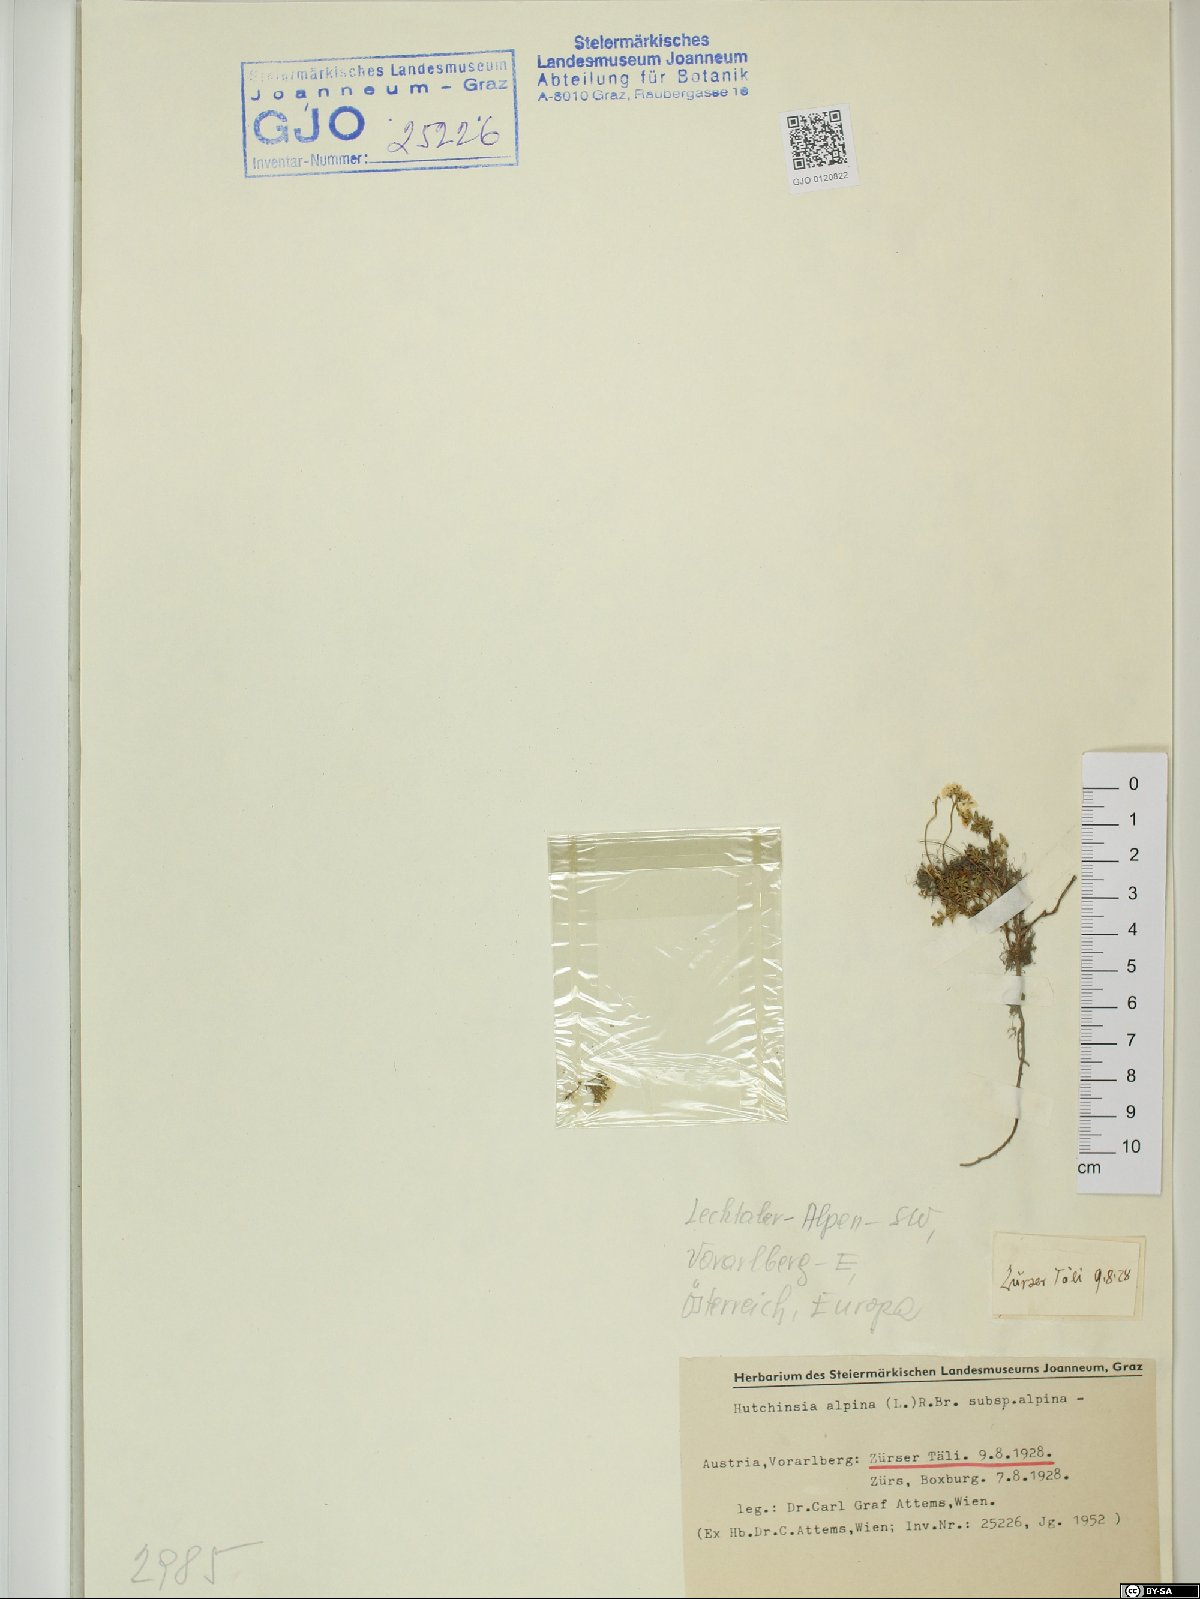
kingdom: Plantae
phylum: Tracheophyta
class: Magnoliopsida
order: Brassicales
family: Brassicaceae
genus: Hornungia
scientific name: Hornungia alpina
